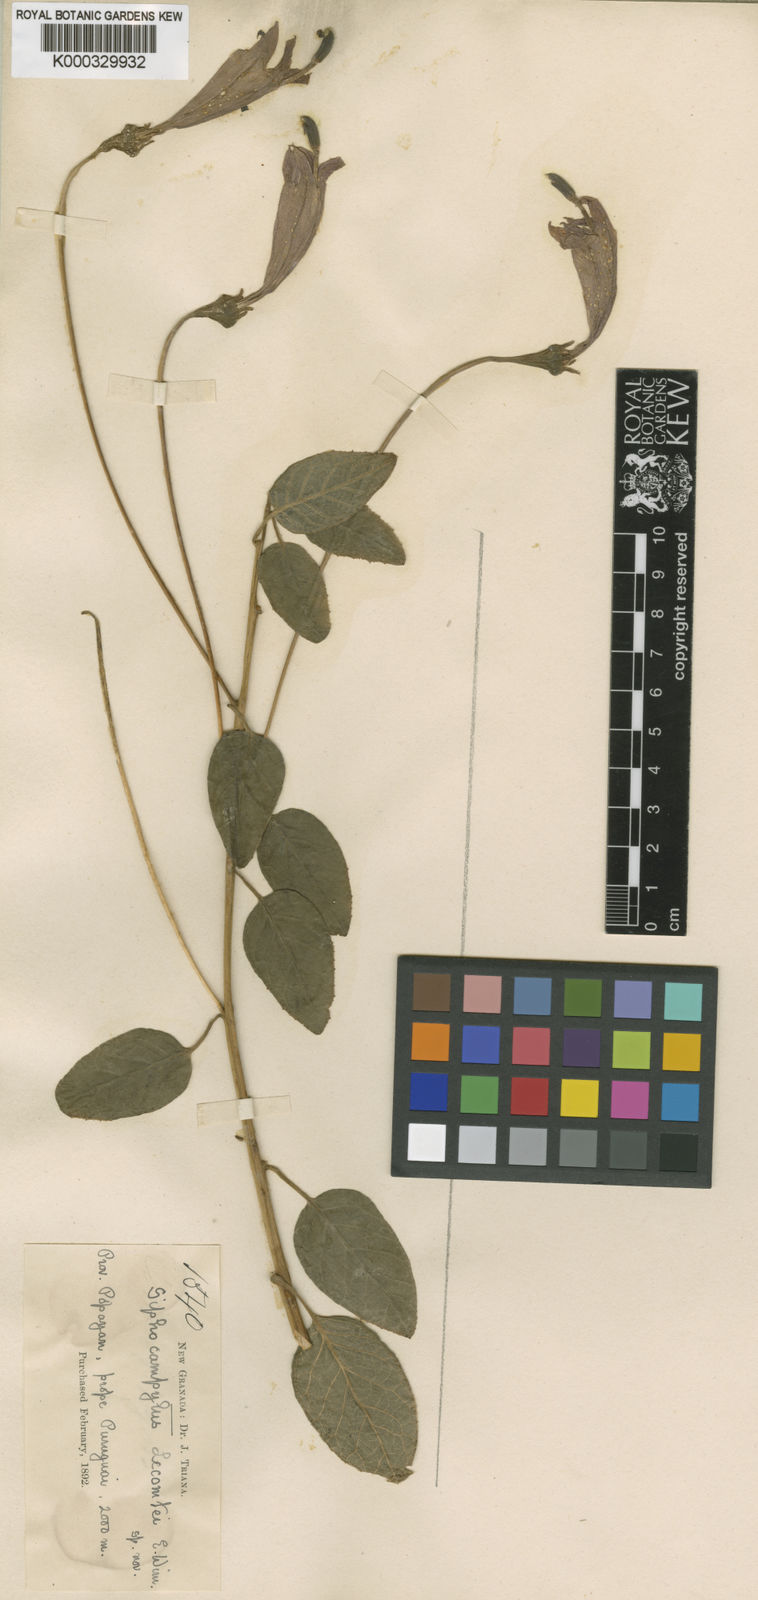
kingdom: Plantae
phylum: Tracheophyta
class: Magnoliopsida
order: Asterales
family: Campanulaceae
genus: Siphocampylus
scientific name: Siphocampylus lecomtei
